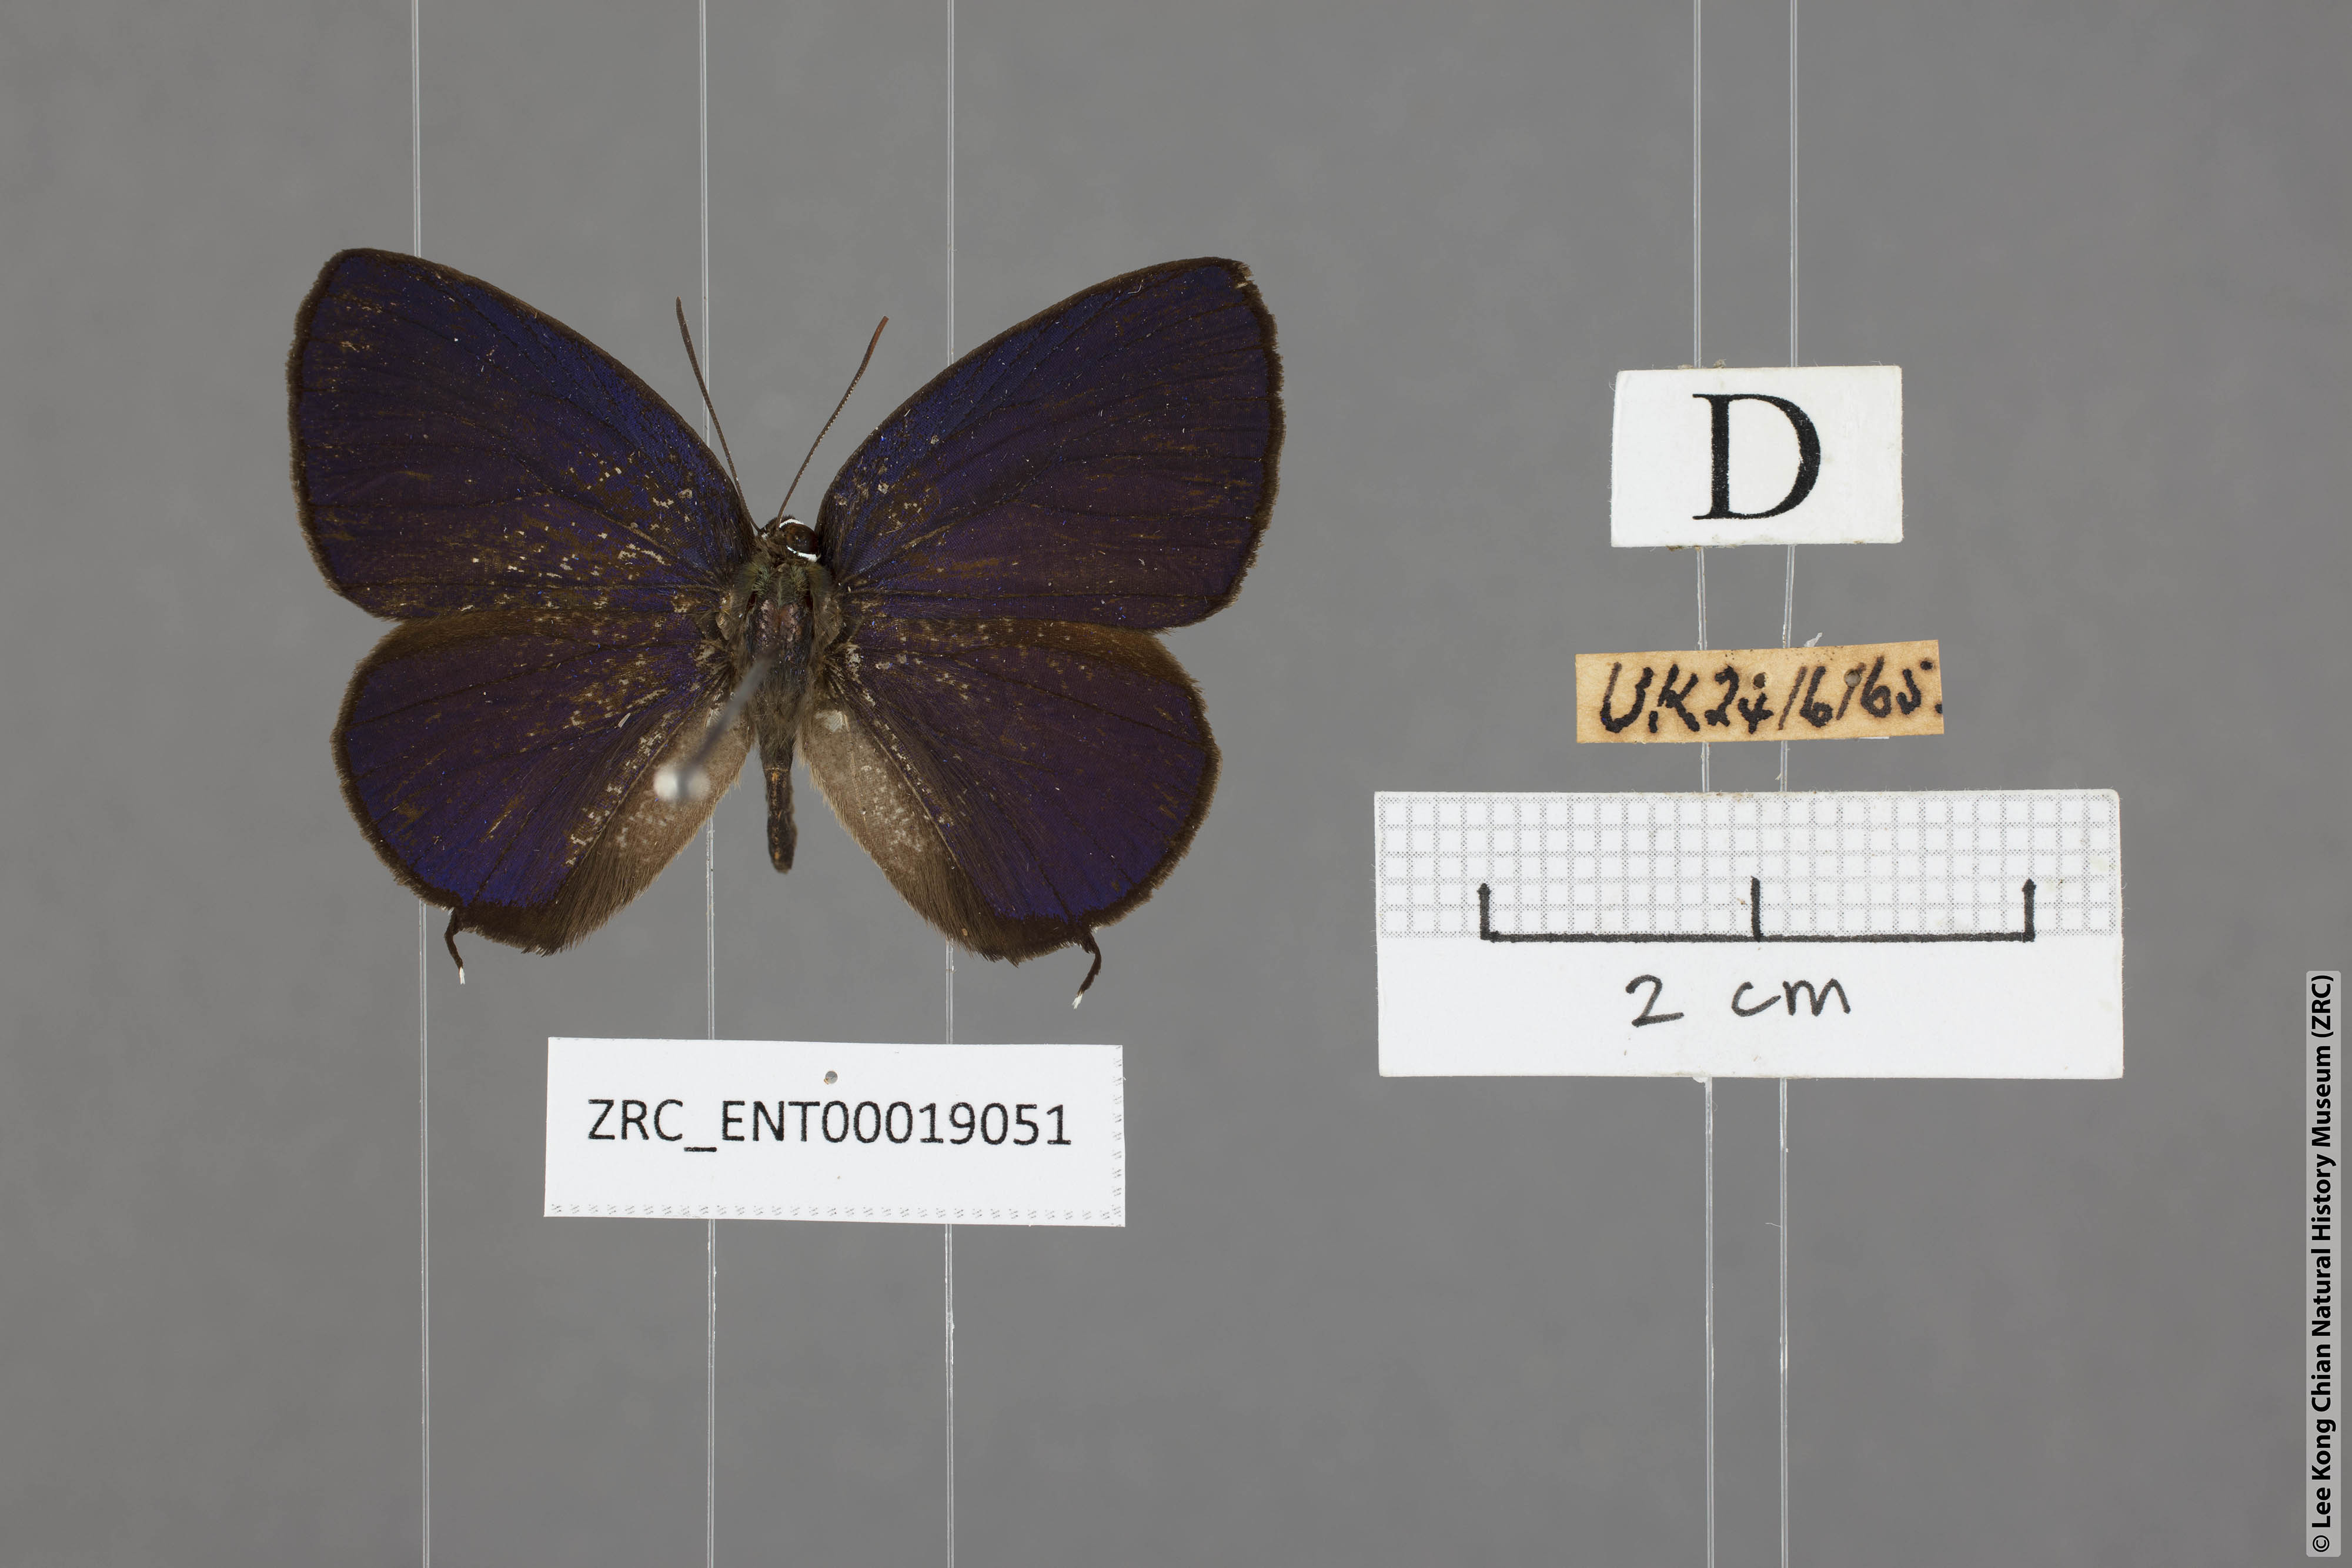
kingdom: Animalia
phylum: Arthropoda
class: Insecta
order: Lepidoptera
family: Lycaenidae
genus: Arhopala
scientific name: Arhopala agrata
